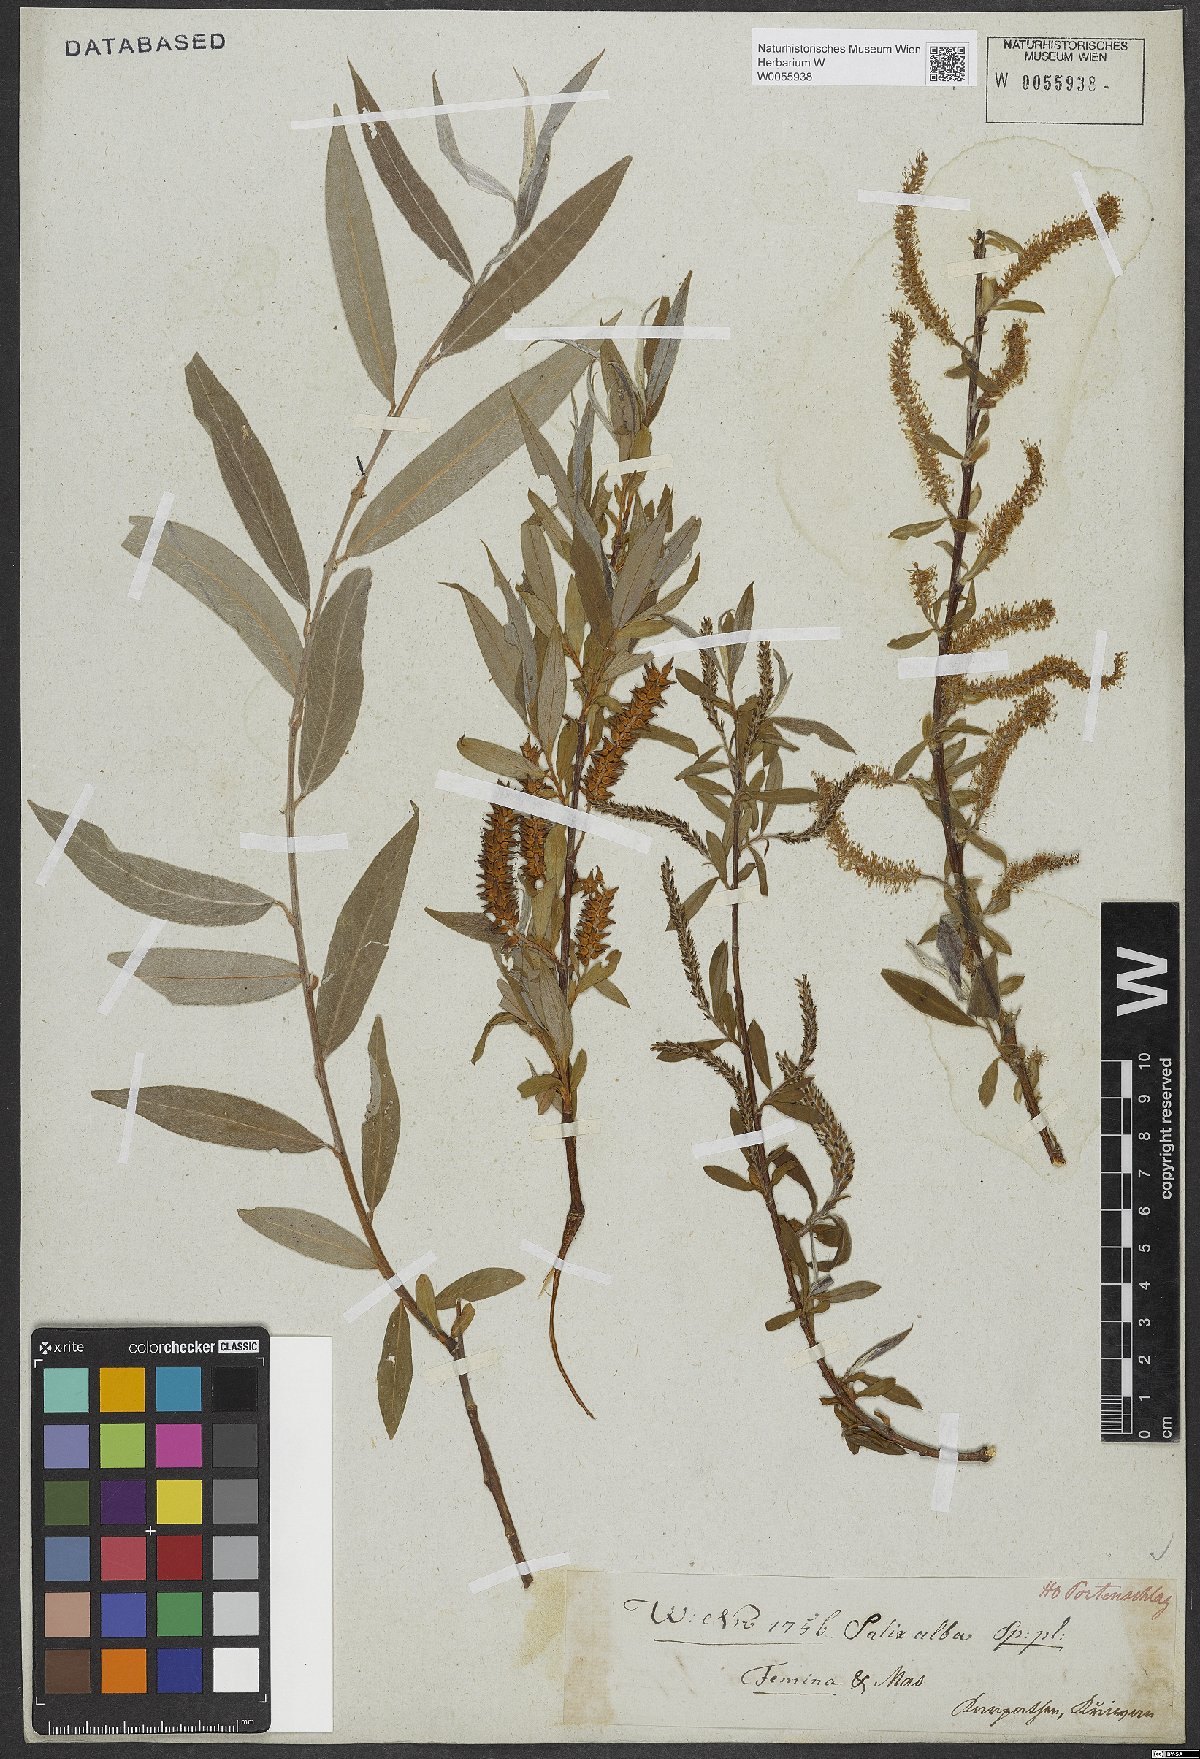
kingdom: Plantae
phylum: Tracheophyta
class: Magnoliopsida
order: Malpighiales
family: Salicaceae
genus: Salix
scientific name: Salix alba
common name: White willow
